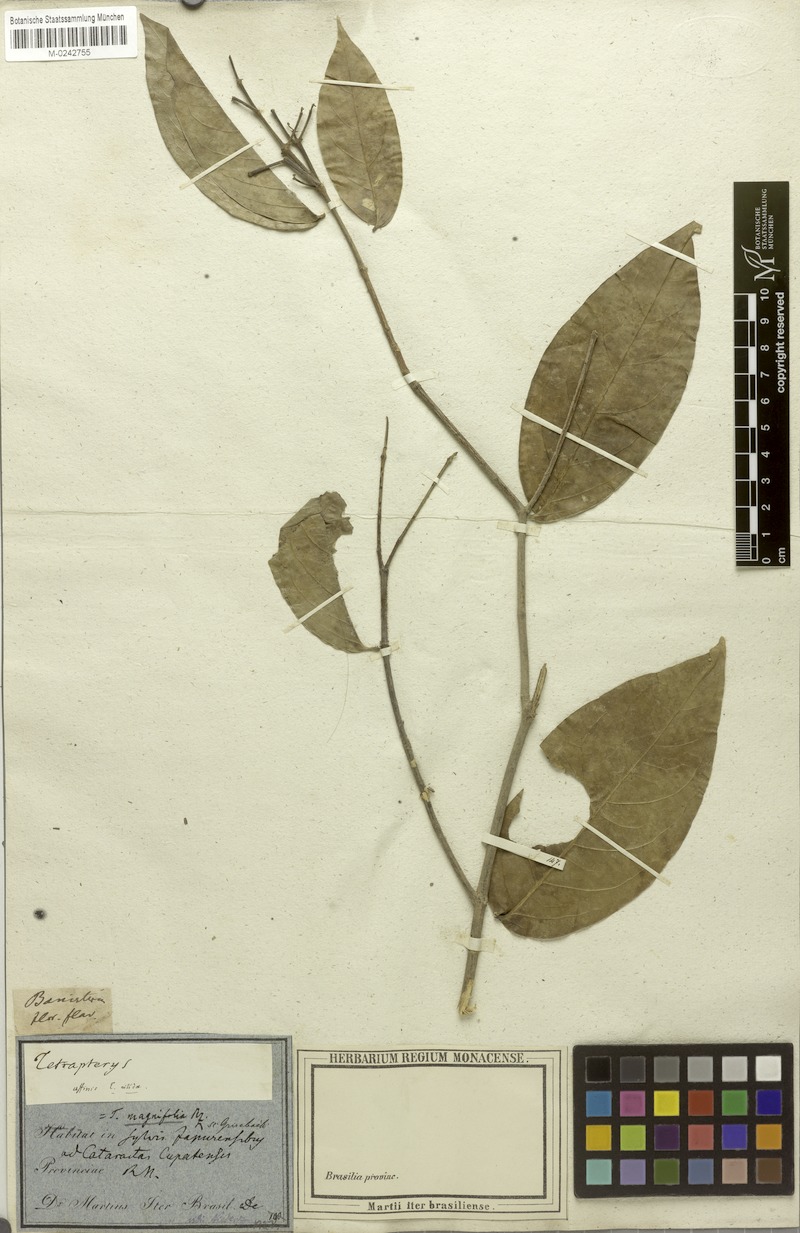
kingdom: Plantae
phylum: Tracheophyta
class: Magnoliopsida
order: Malpighiales
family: Malpighiaceae
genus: Tetrapterys
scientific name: Tetrapterys magnifolia
